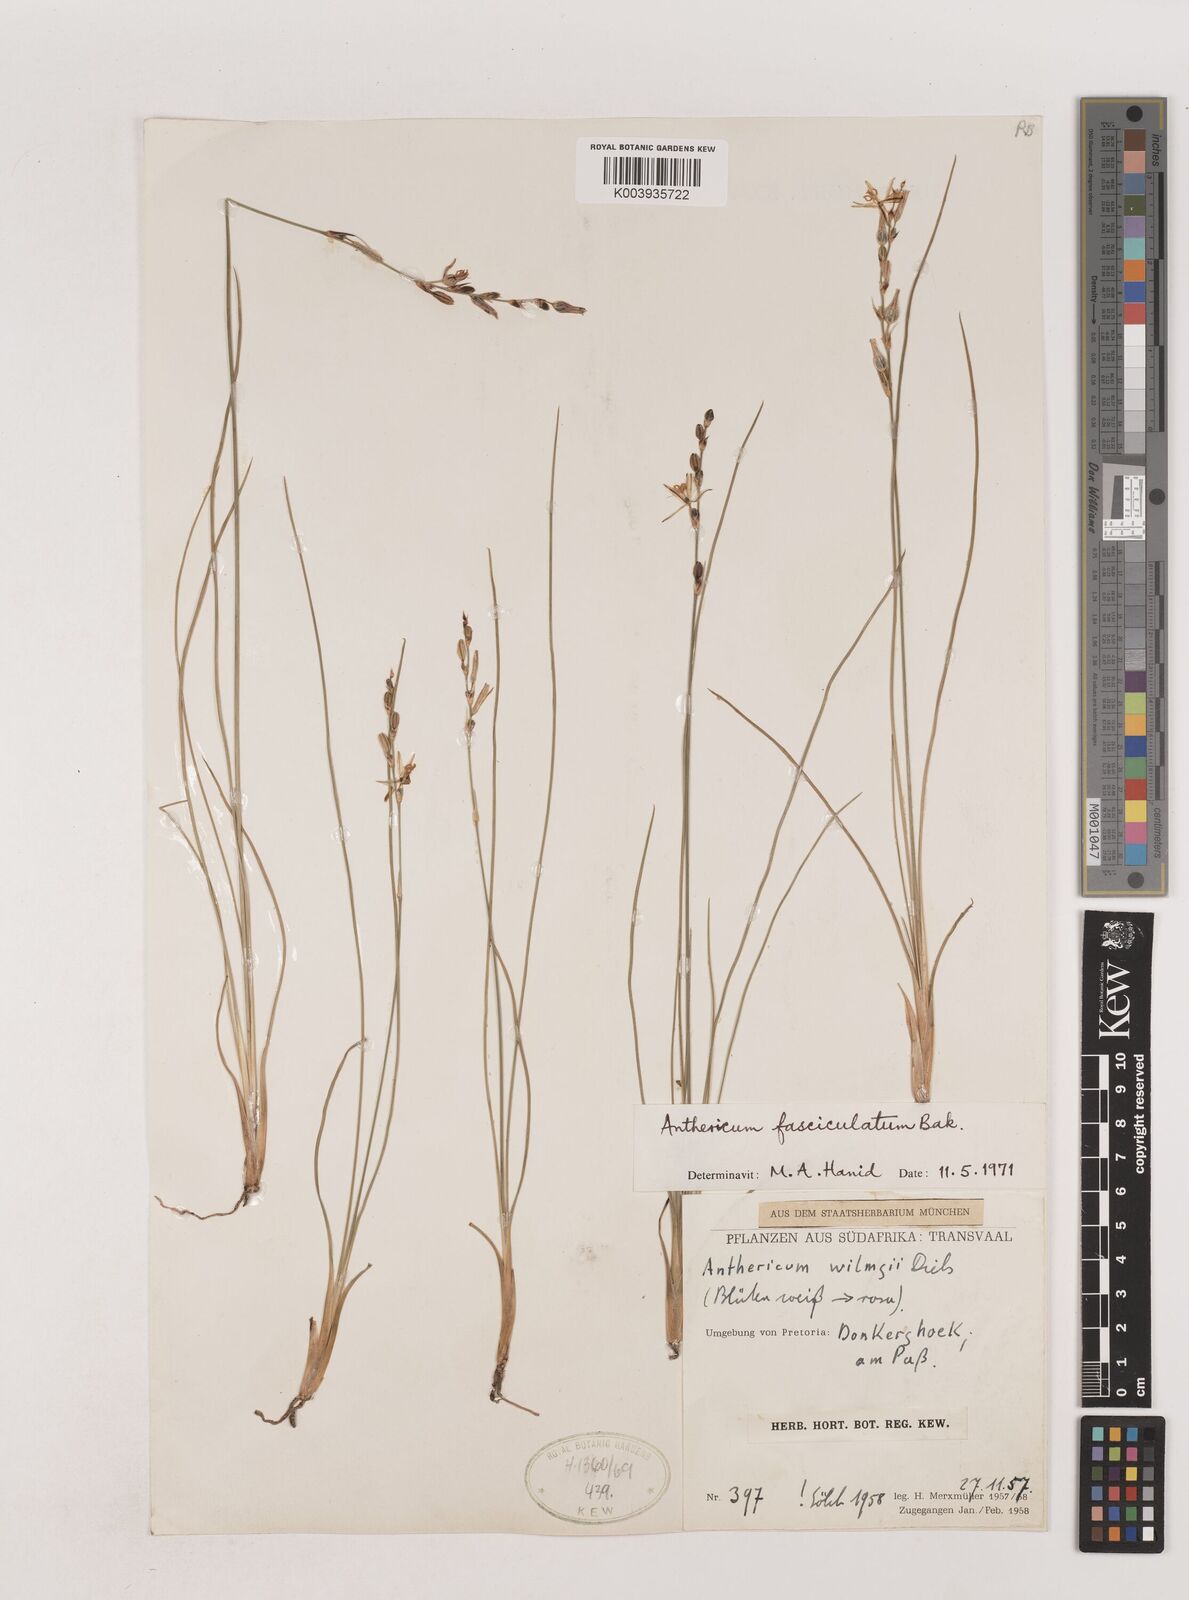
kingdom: Plantae
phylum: Tracheophyta
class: Liliopsida
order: Asparagales
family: Asparagaceae
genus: Chlorophytum
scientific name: Chlorophytum fasciculatum
